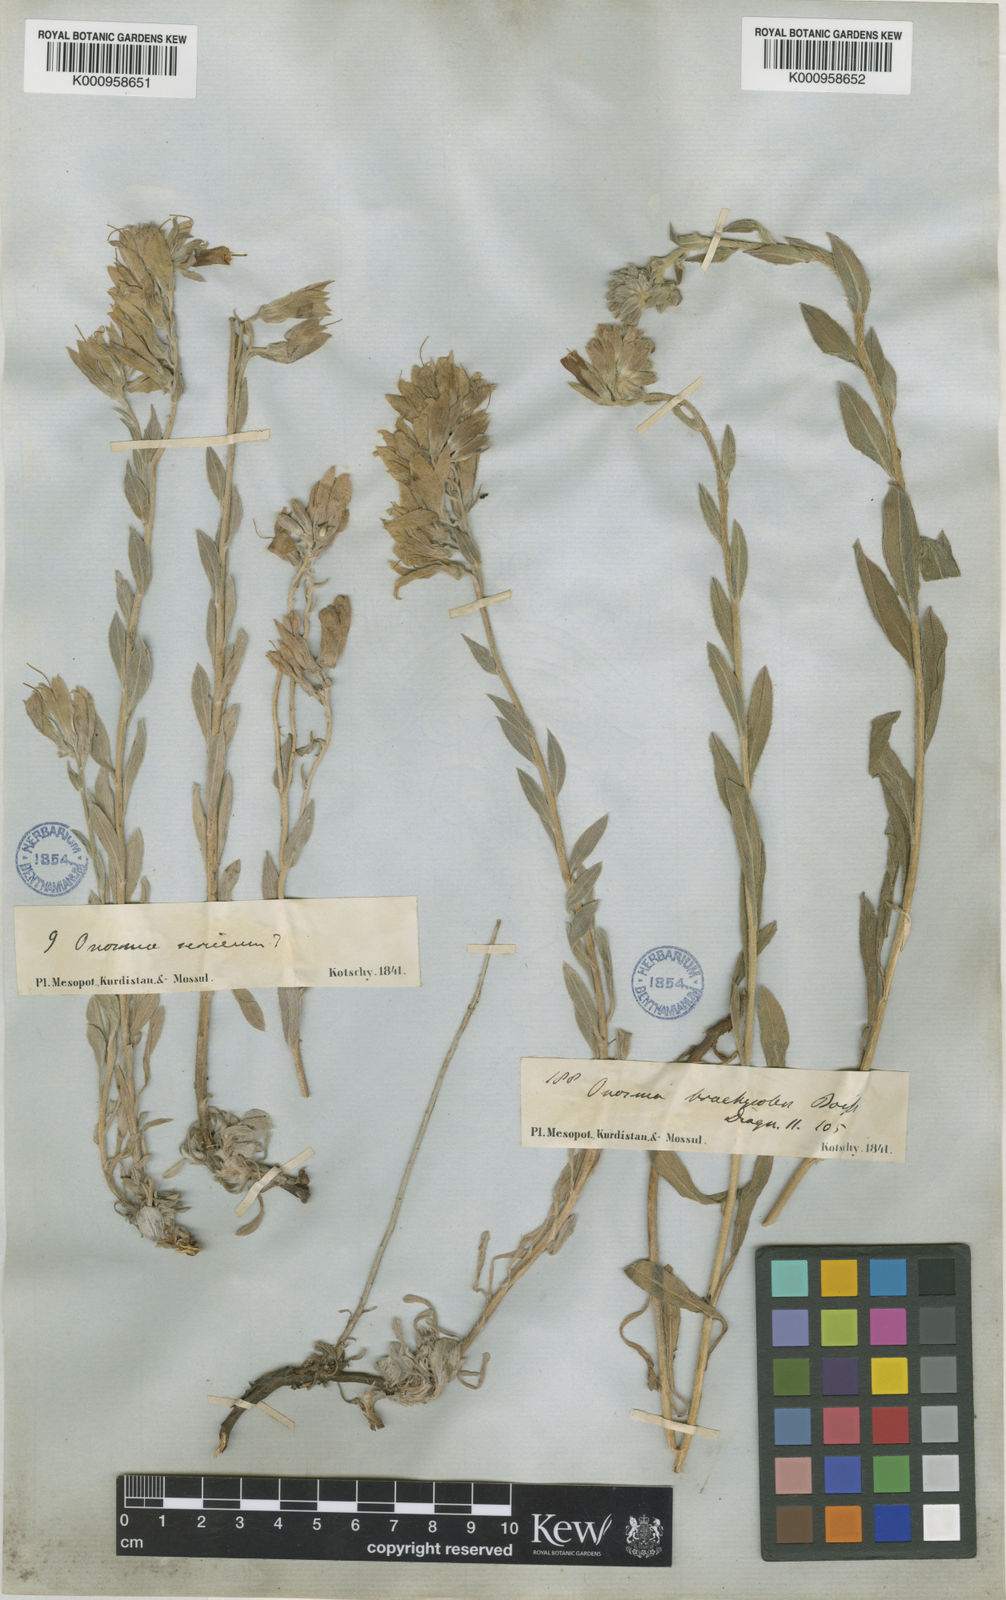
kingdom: Plantae
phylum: Tracheophyta
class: Magnoliopsida
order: Boraginales
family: Boraginaceae
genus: Onosma
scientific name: Onosma isaurica
